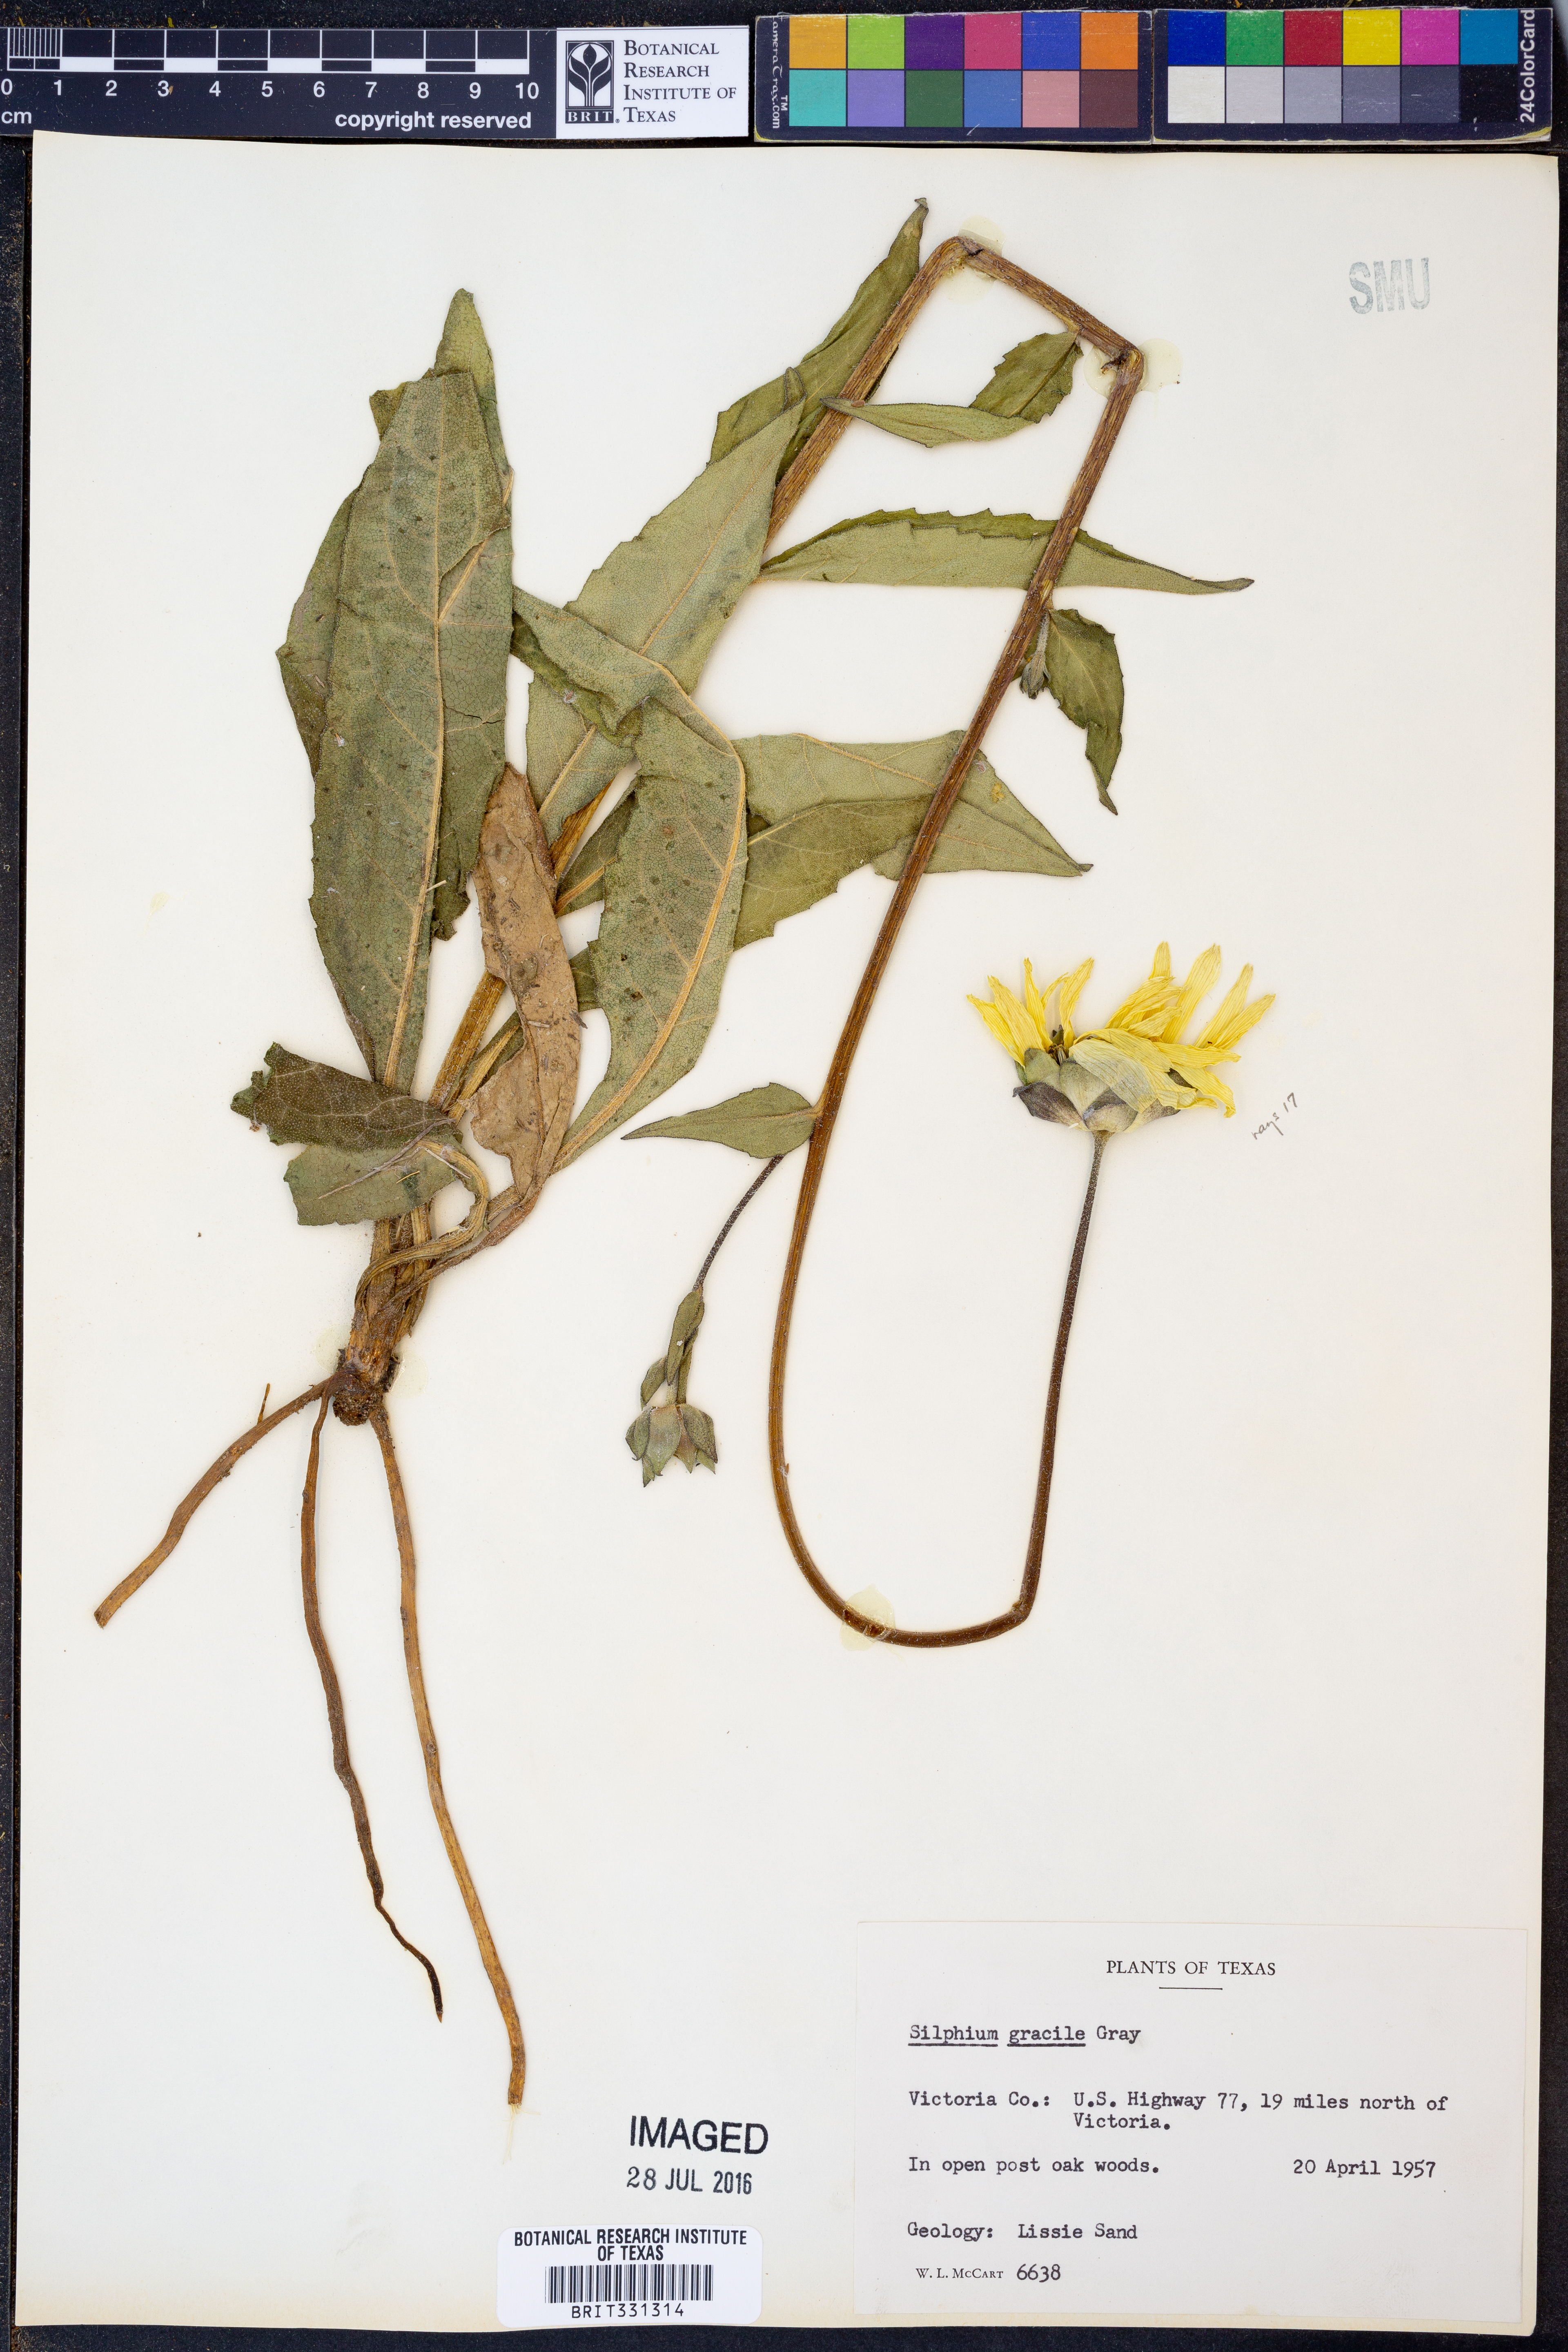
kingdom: Plantae
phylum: Tracheophyta
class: Magnoliopsida
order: Asterales
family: Asteraceae
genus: Silphium
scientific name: Silphium radula
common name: Roughleaf rosinweed
